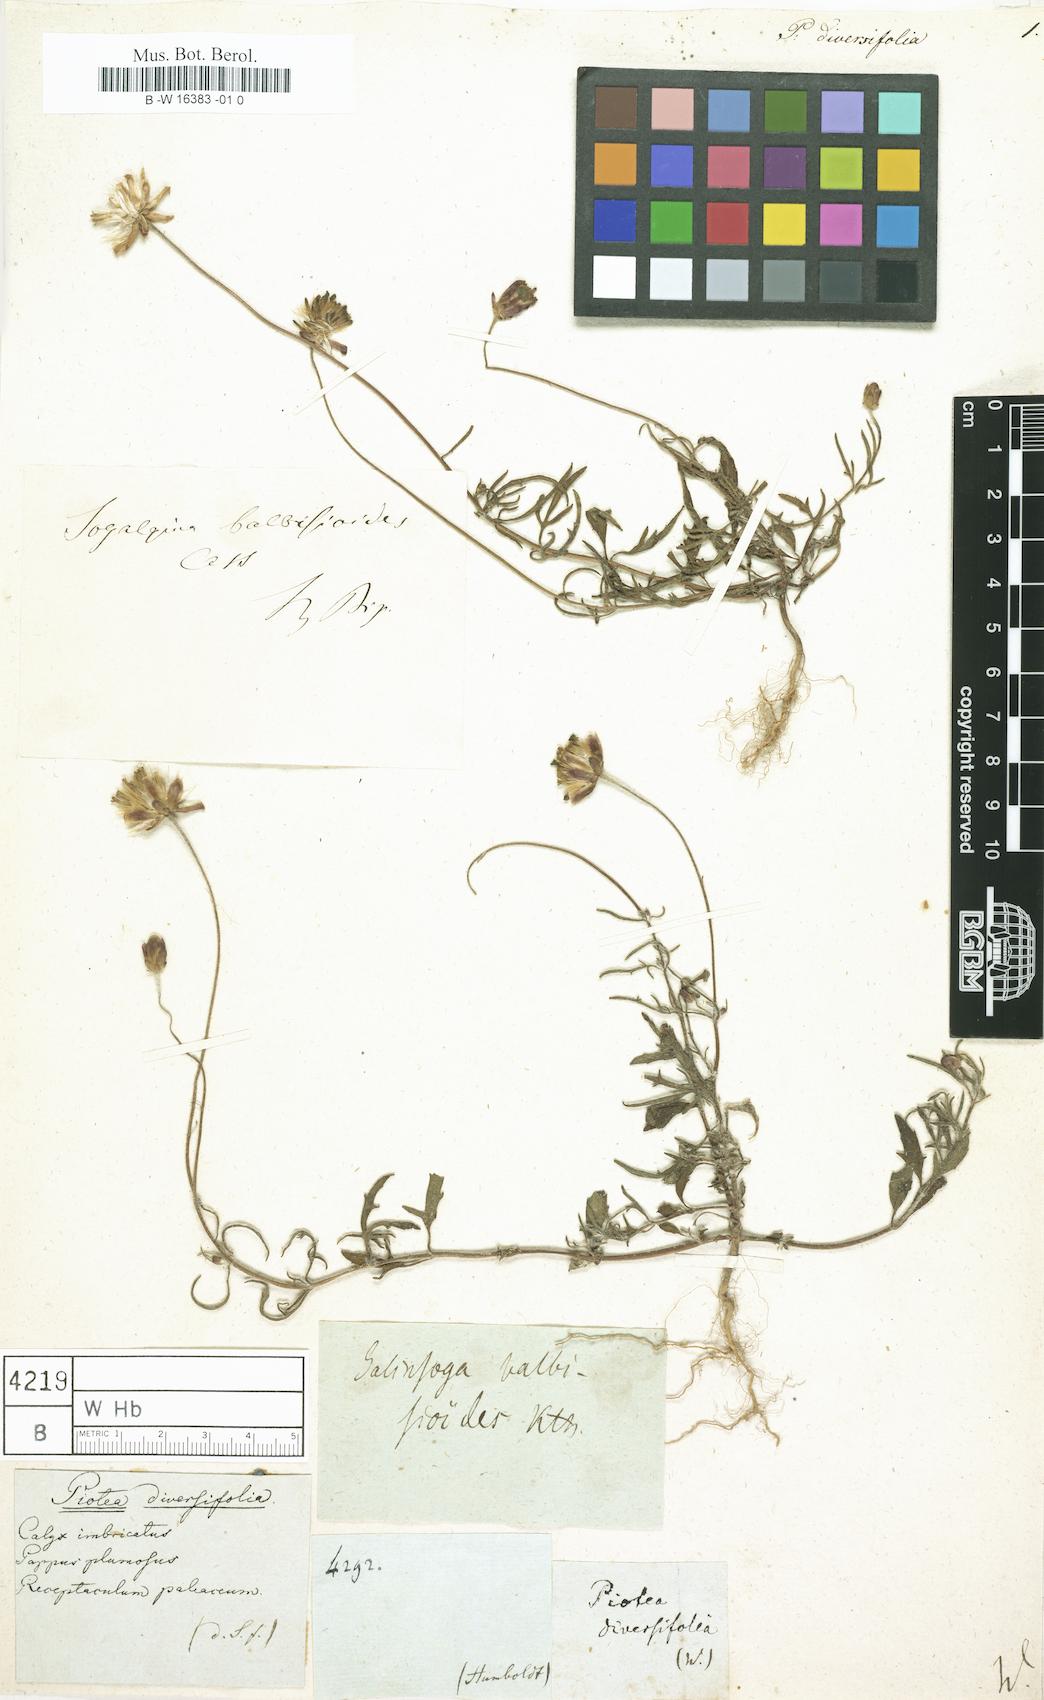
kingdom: Plantae
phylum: Tracheophyta
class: Magnoliopsida
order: Proteales
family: Proteaceae
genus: Leucadendron
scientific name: Leucadendron salignum
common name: Common sunshine conebush
